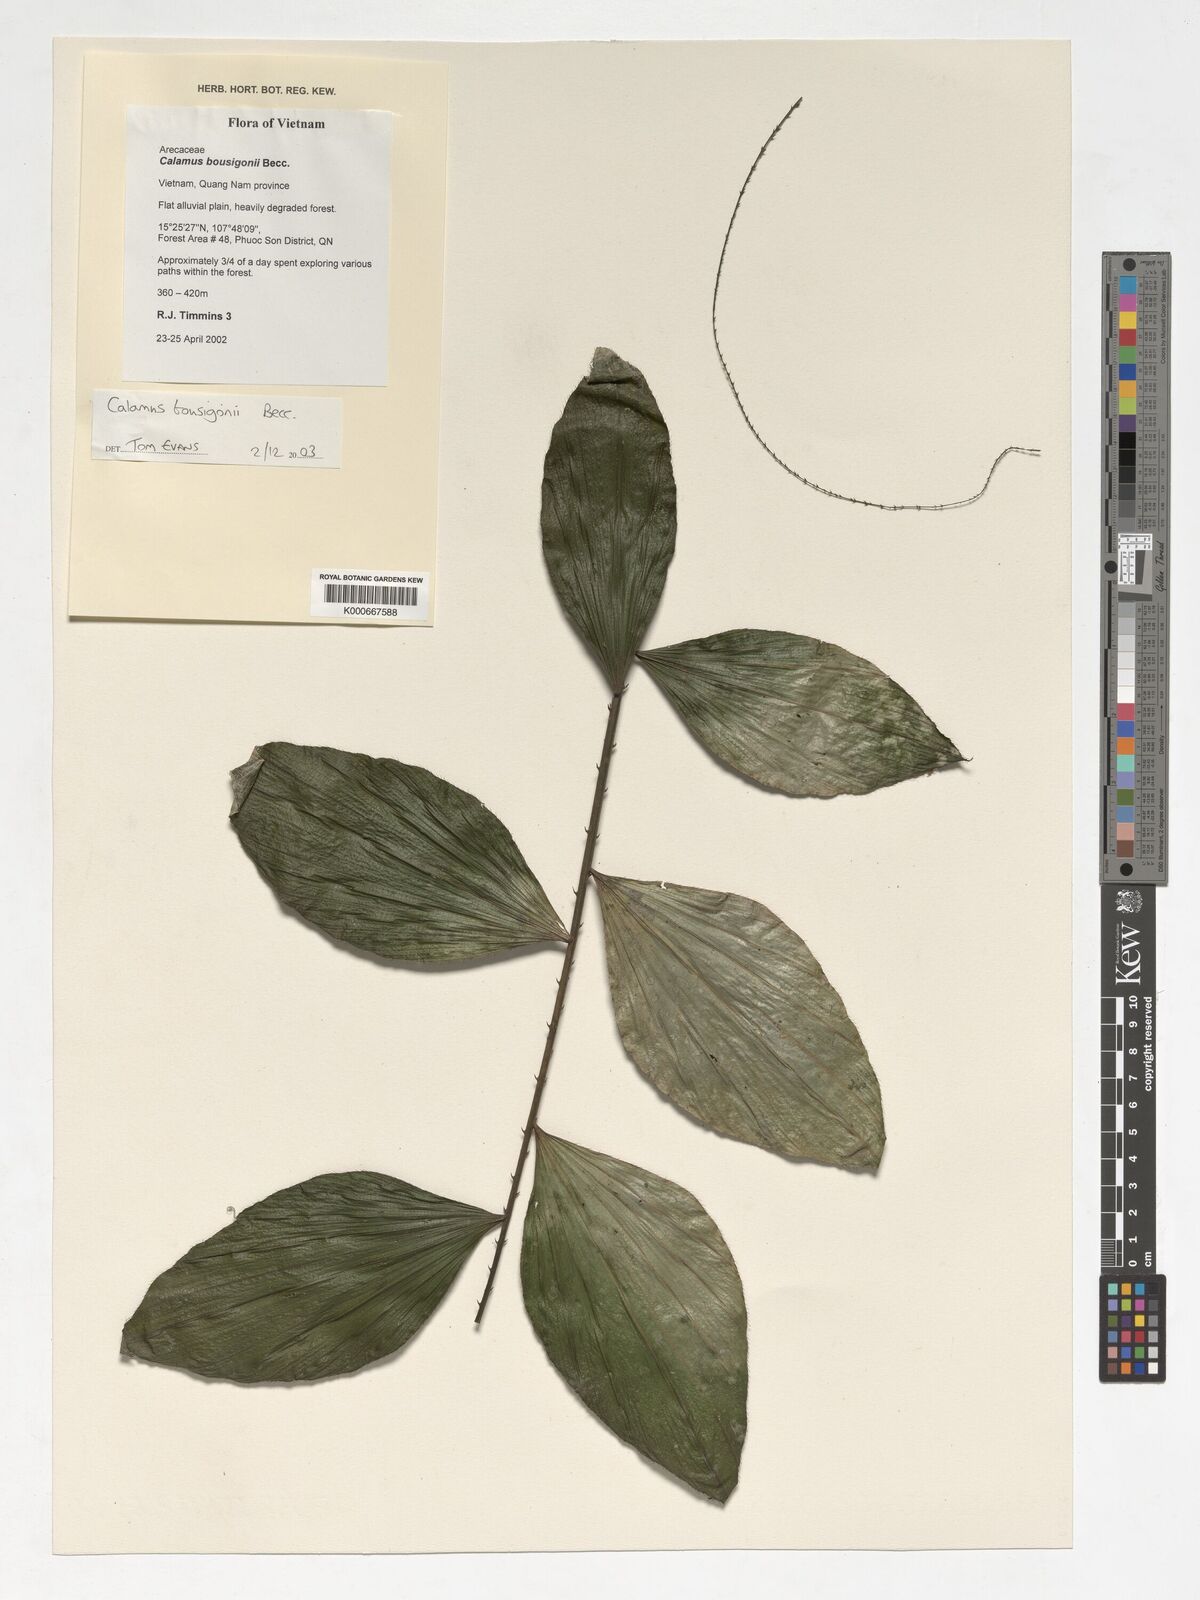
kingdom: Plantae
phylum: Tracheophyta
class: Liliopsida
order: Arecales
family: Arecaceae
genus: Calamus
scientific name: Calamus bousigonii
